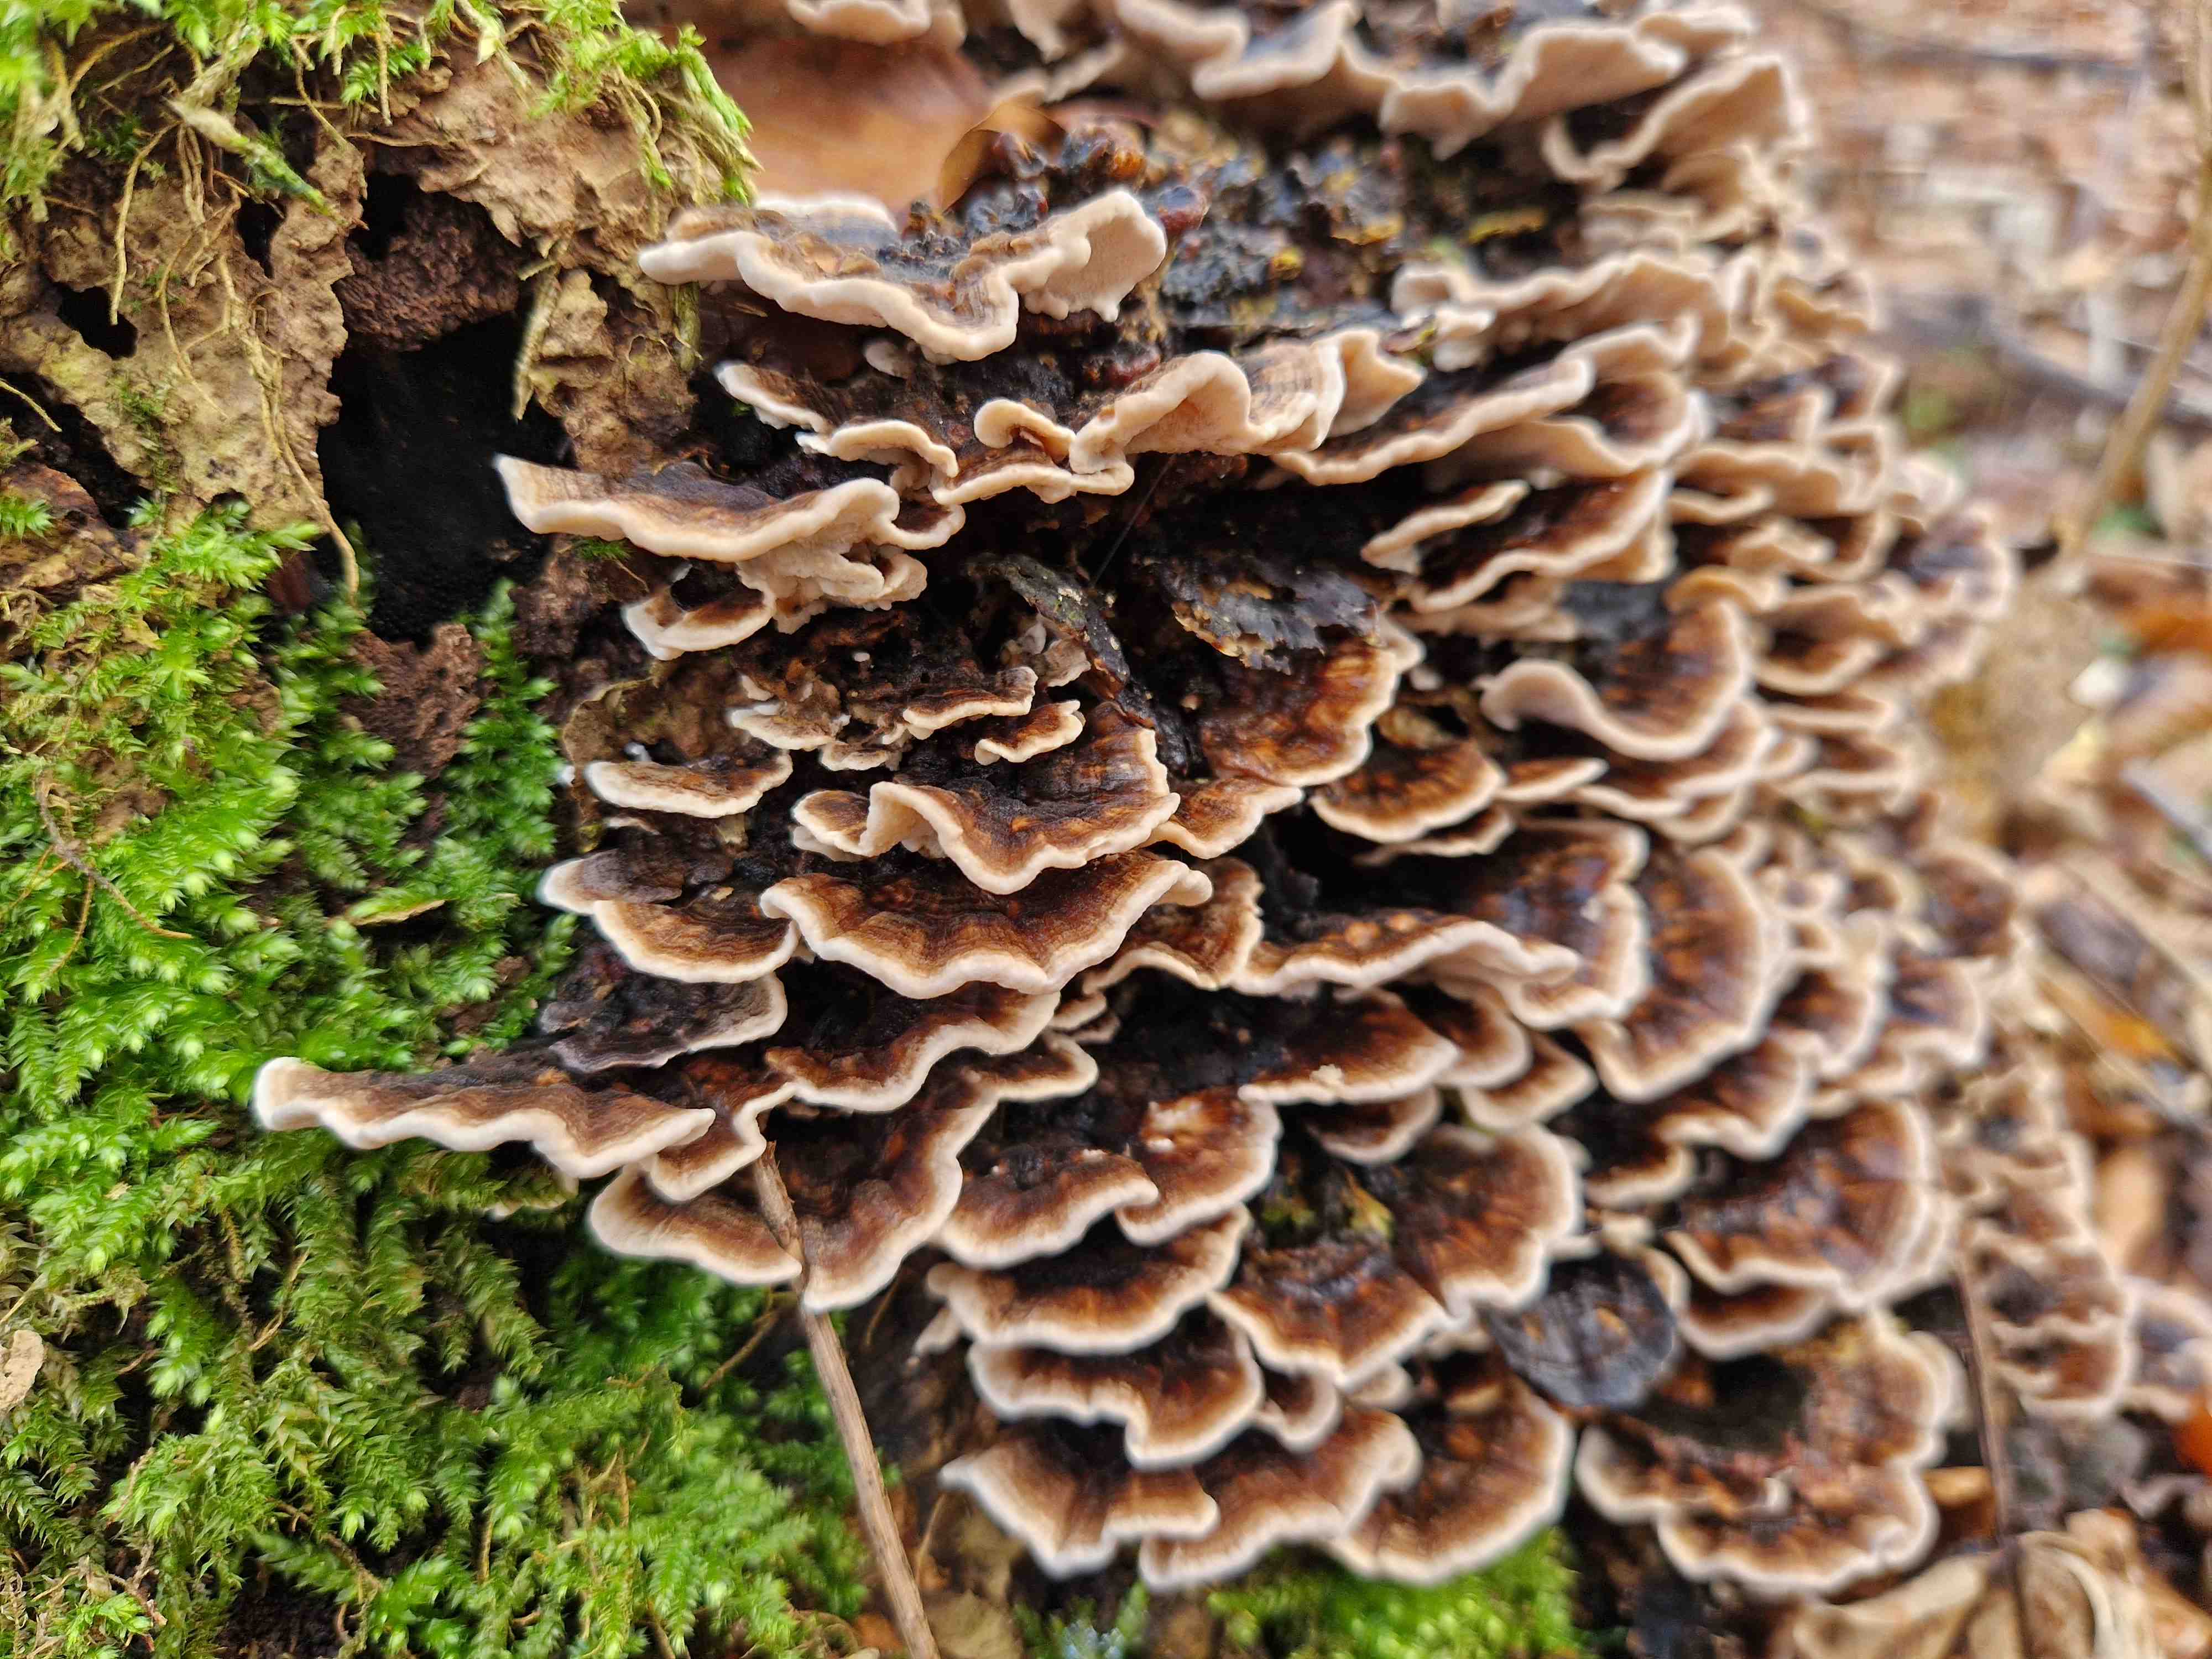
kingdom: Fungi
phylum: Basidiomycota
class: Agaricomycetes
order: Polyporales
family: Polyporaceae
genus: Trametes
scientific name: Trametes versicolor
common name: broget læderporesvamp
